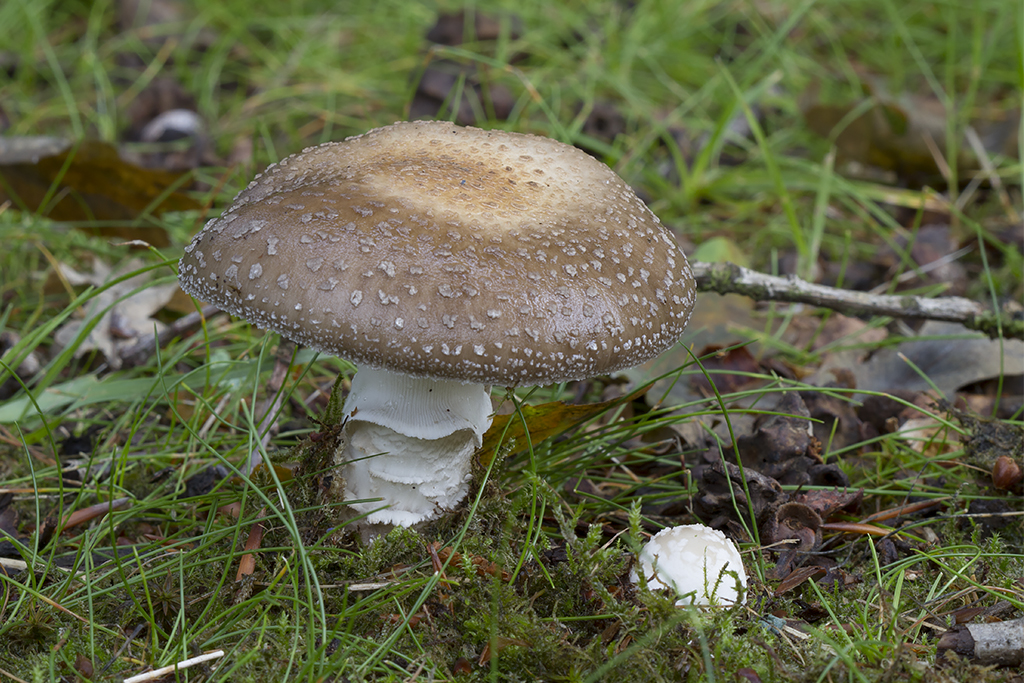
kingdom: Fungi
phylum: Basidiomycota
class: Agaricomycetes
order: Agaricales
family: Amanitaceae
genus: Amanita
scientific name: Amanita
